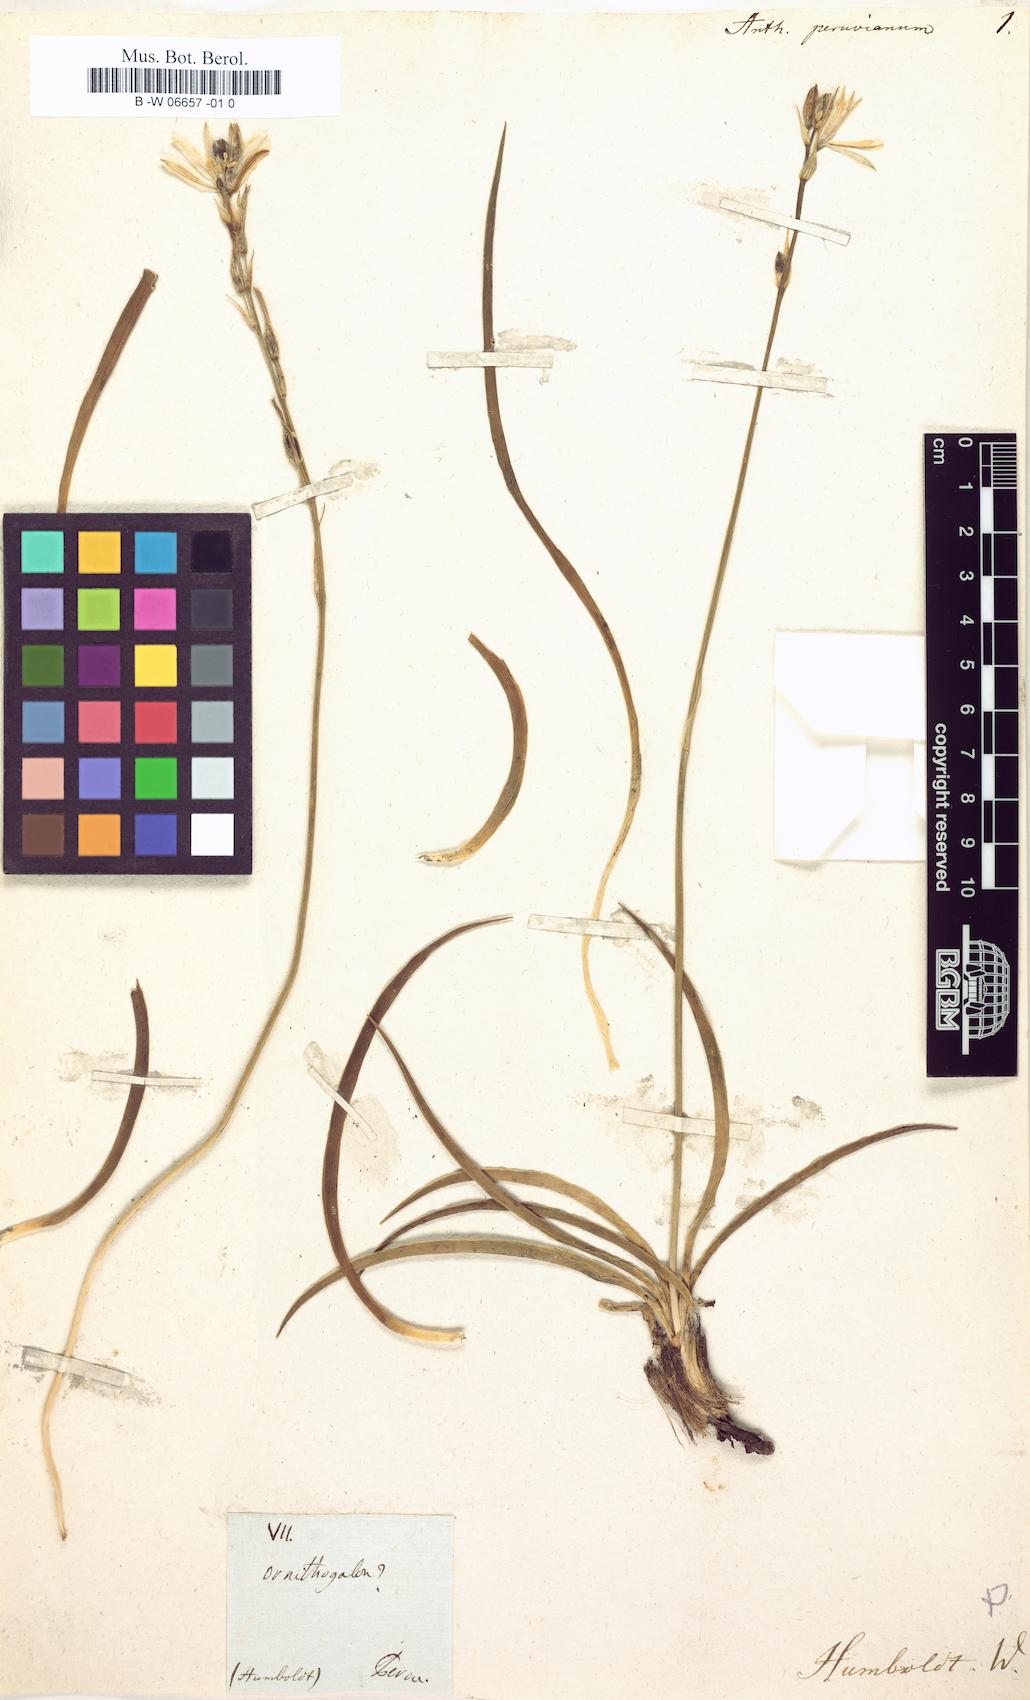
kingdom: Plantae
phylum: Tracheophyta
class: Liliopsida
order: Asparagales
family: Asparagaceae
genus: Echeandia
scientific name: Echeandia ciliata
